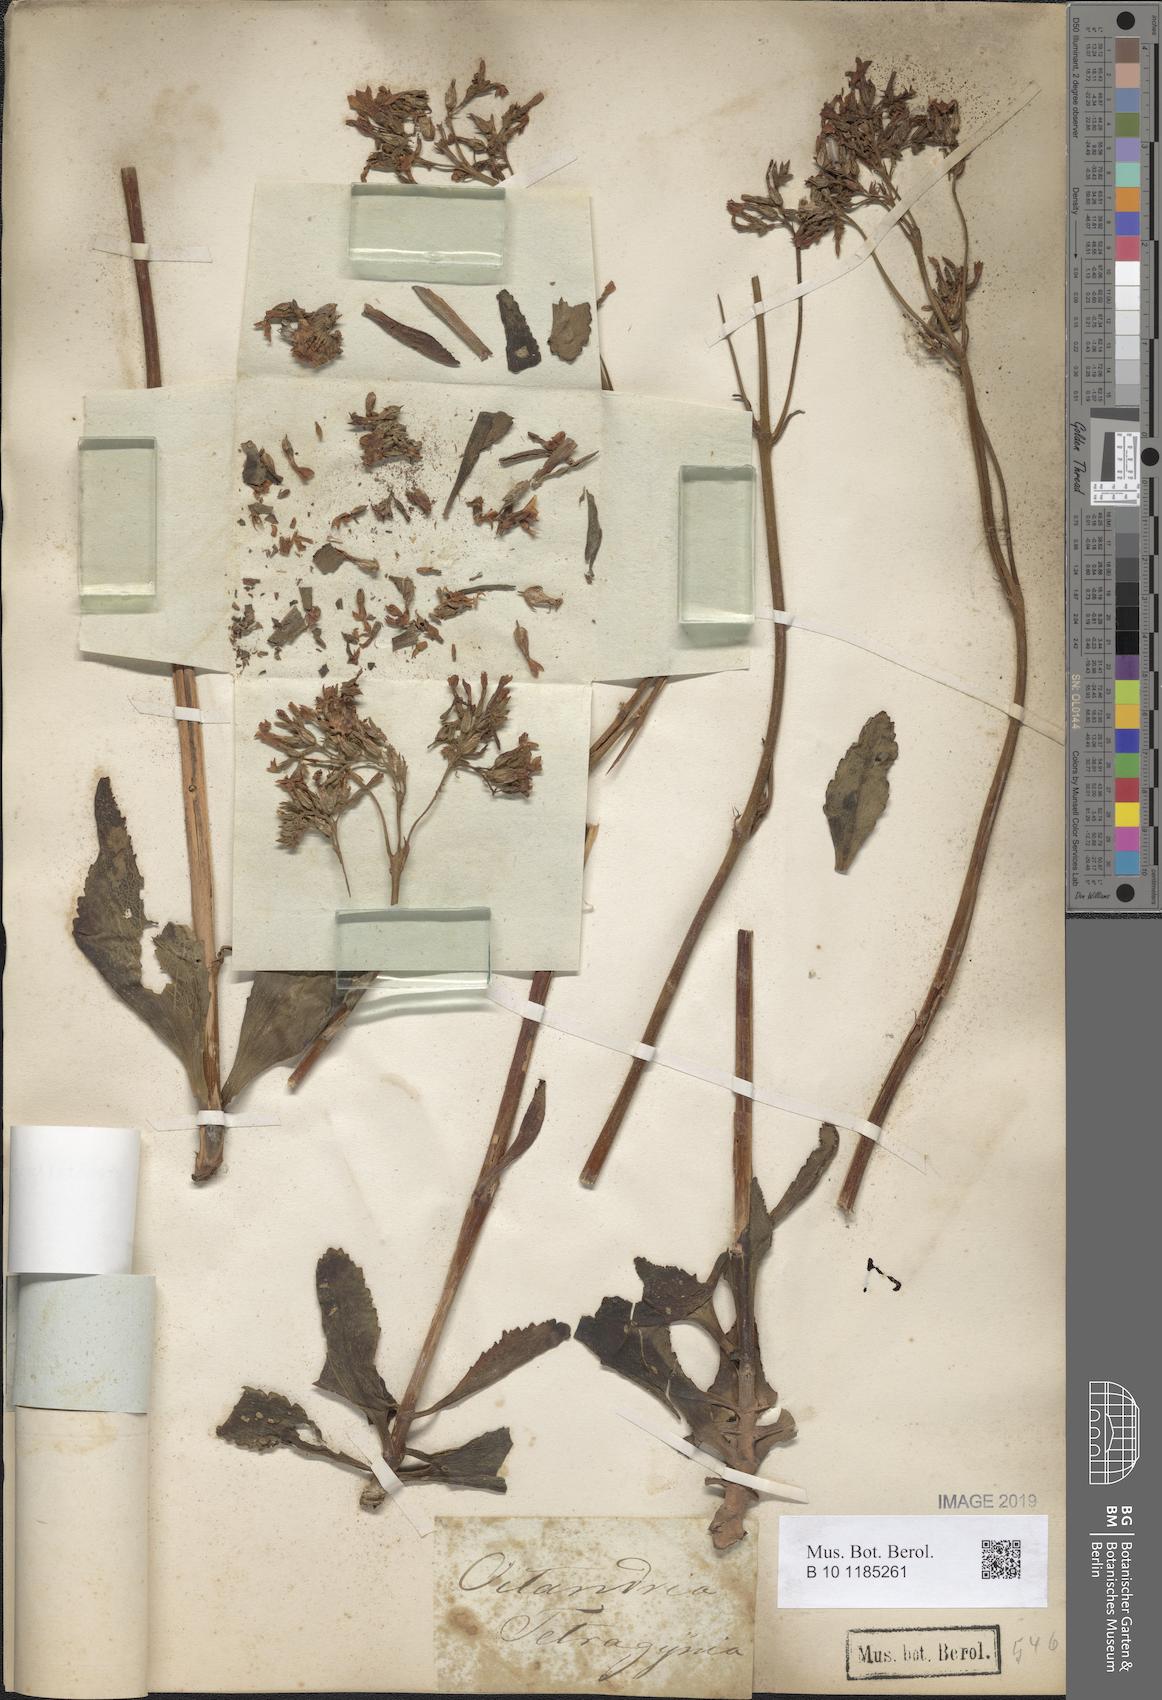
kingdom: Plantae
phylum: Tracheophyta
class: Magnoliopsida
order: Saxifragales
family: Crassulaceae
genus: Kalanchoe
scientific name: Kalanchoe crenata
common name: Neverdie
